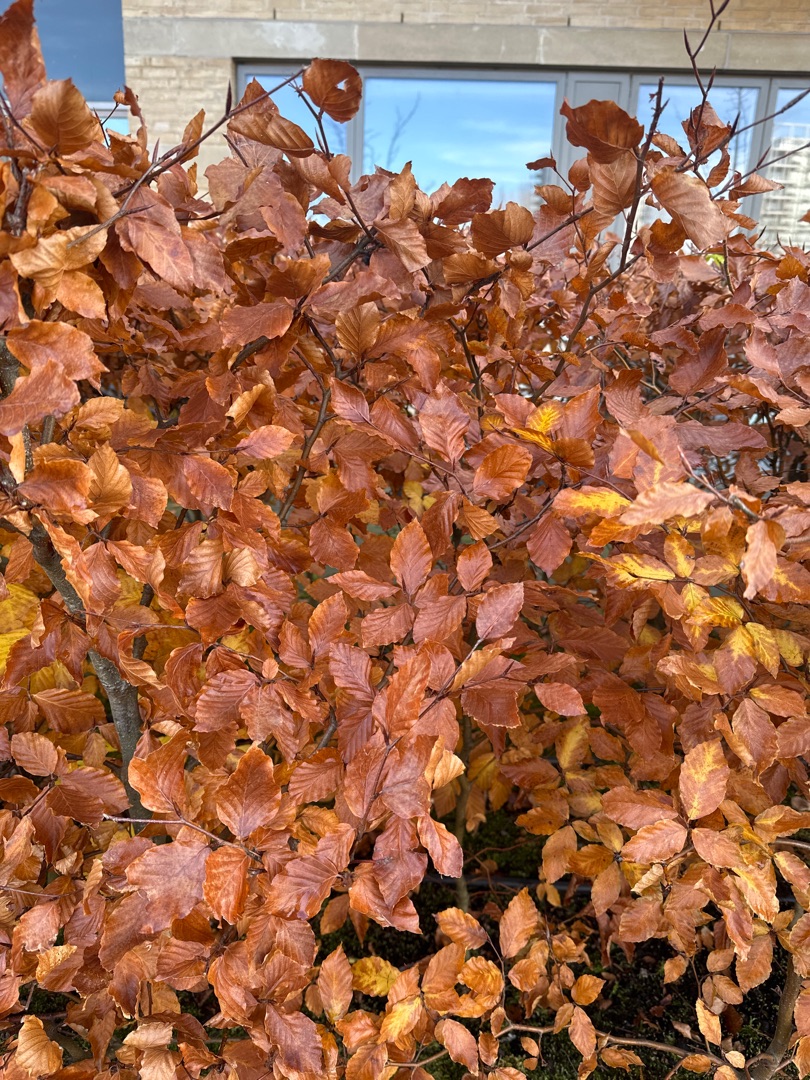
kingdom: Plantae
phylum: Tracheophyta
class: Magnoliopsida
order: Fagales
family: Fagaceae
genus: Fagus
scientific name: Fagus sylvatica
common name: Bøg
